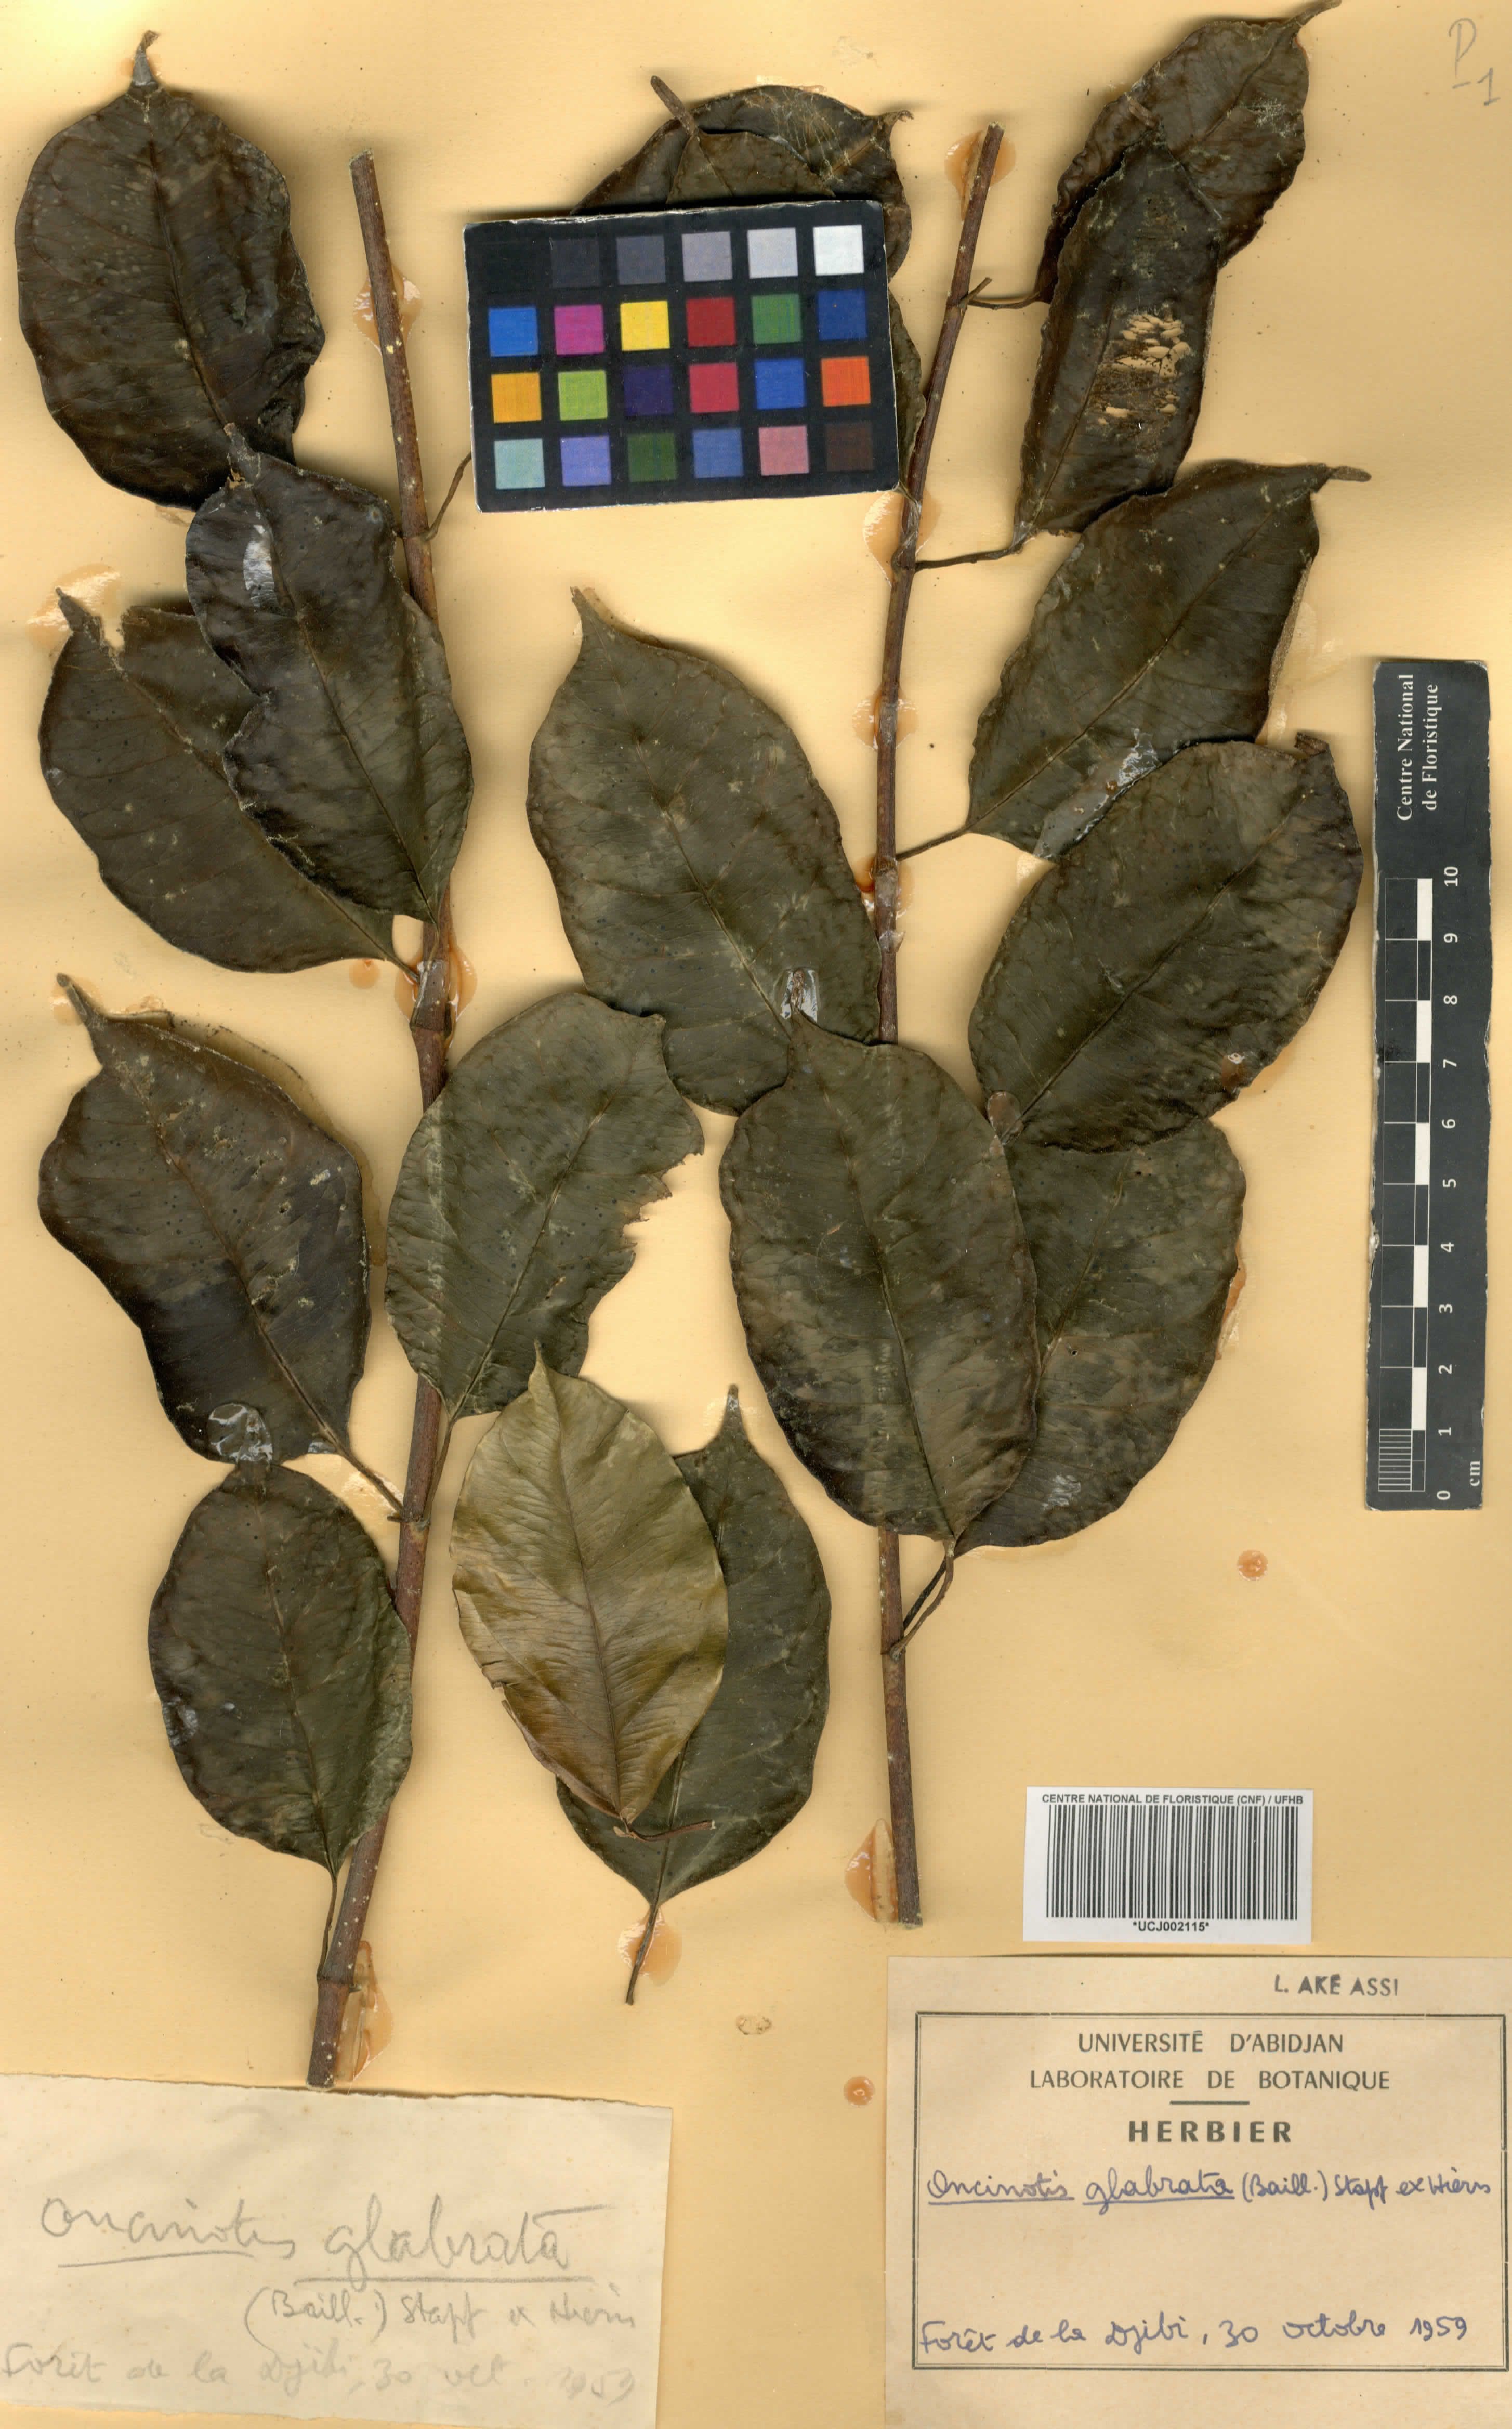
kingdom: Plantae
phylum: Tracheophyta
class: Magnoliopsida
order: Gentianales
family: Apocynaceae
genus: Oncinotis
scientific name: Oncinotis glabrata
